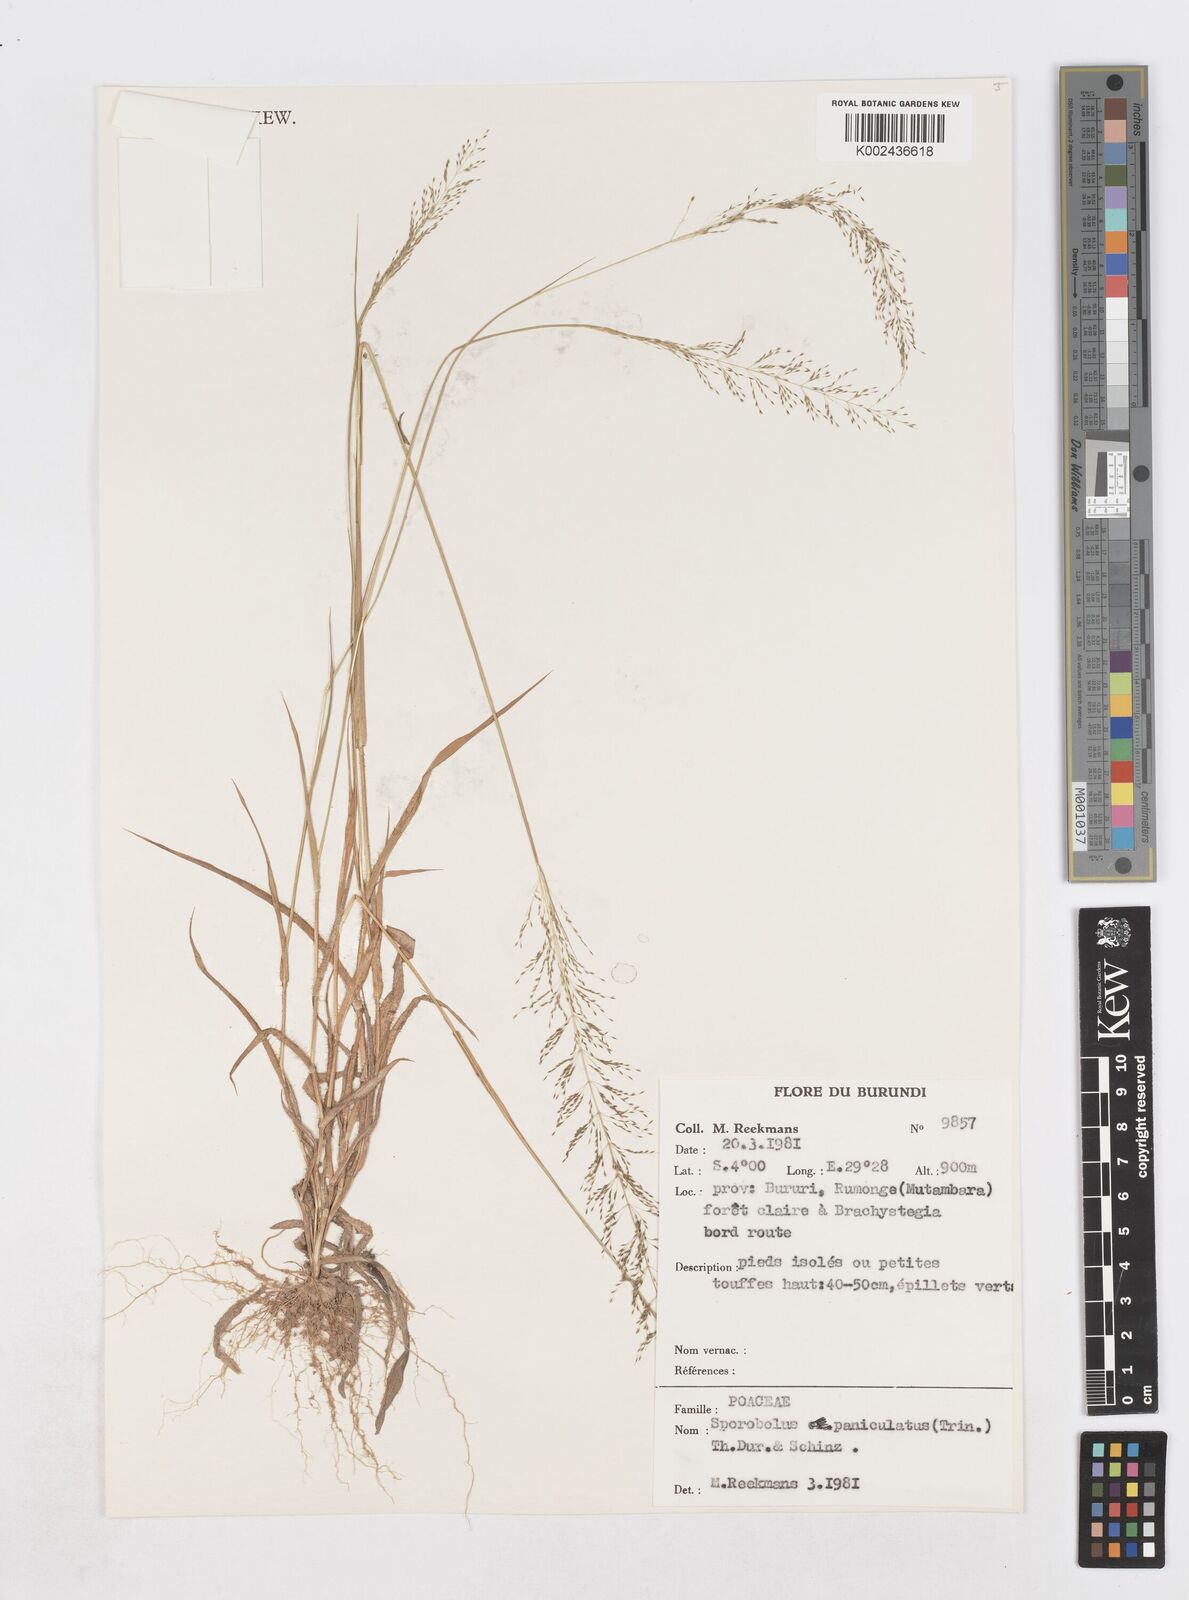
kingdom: Plantae
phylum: Tracheophyta
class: Liliopsida
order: Poales
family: Poaceae
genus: Sporobolus
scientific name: Sporobolus paniculatus
